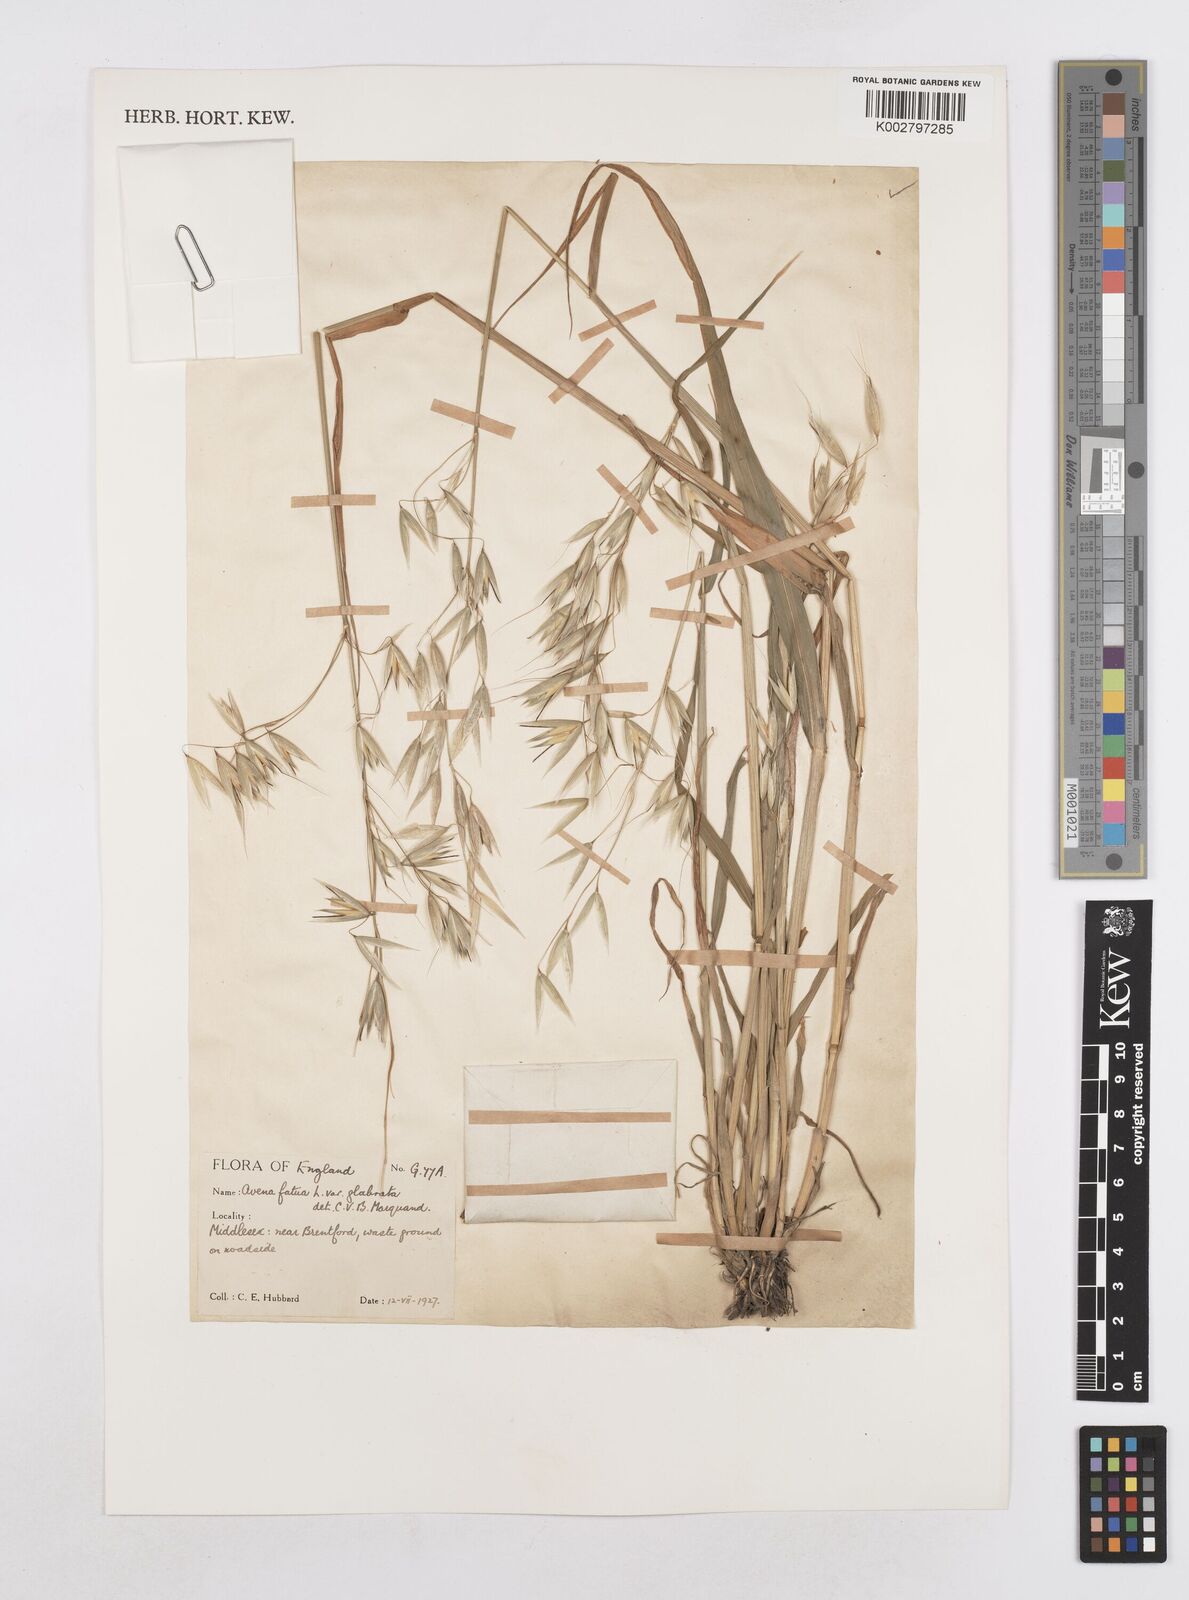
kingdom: Plantae
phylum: Tracheophyta
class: Liliopsida
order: Poales
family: Poaceae
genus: Avena
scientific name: Avena fatua
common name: Wild oat
